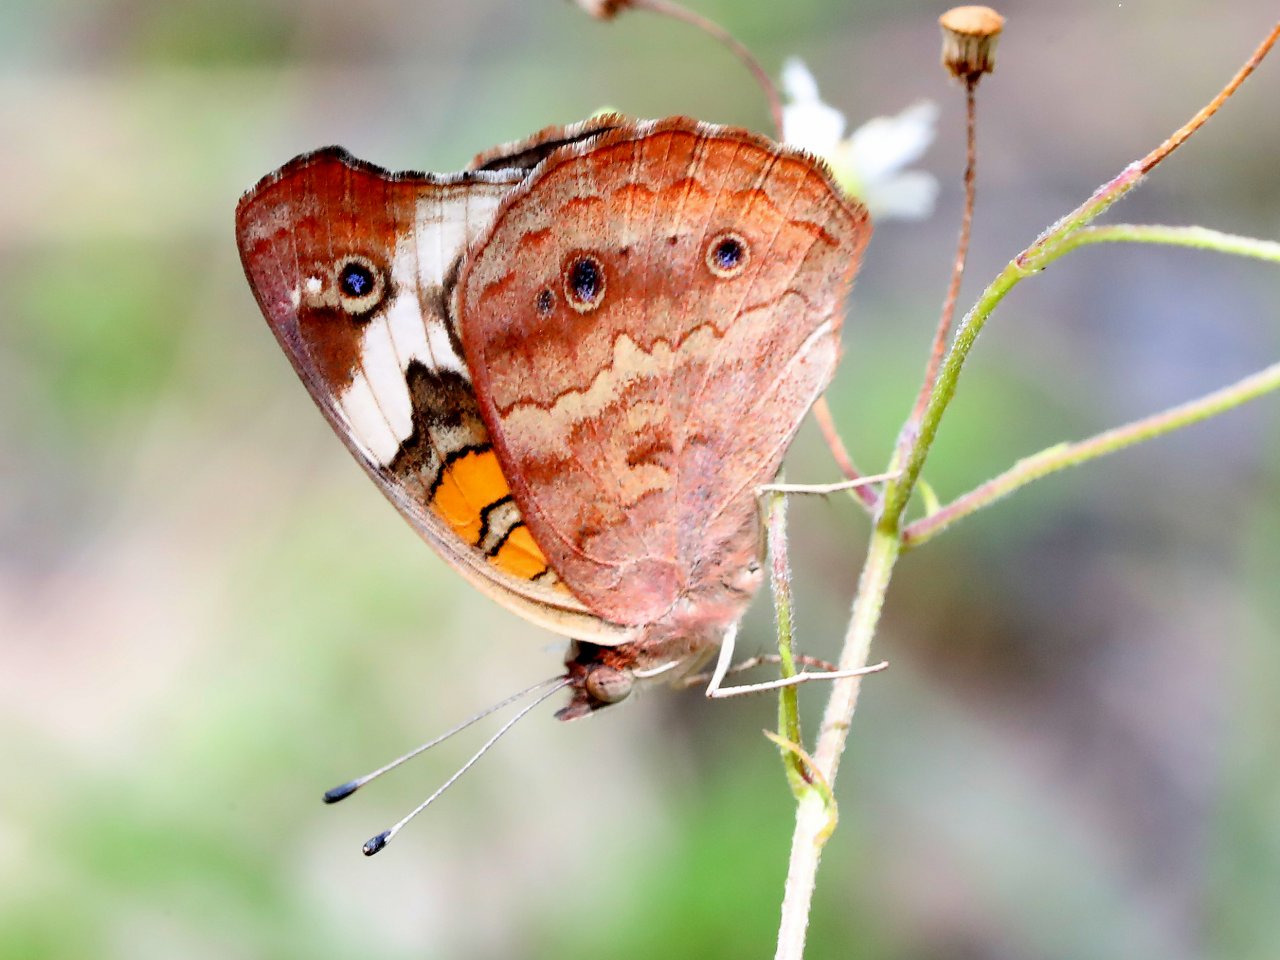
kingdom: Animalia
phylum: Arthropoda
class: Insecta
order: Lepidoptera
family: Nymphalidae
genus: Junonia
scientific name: Junonia coenia
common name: Common Buckeye
